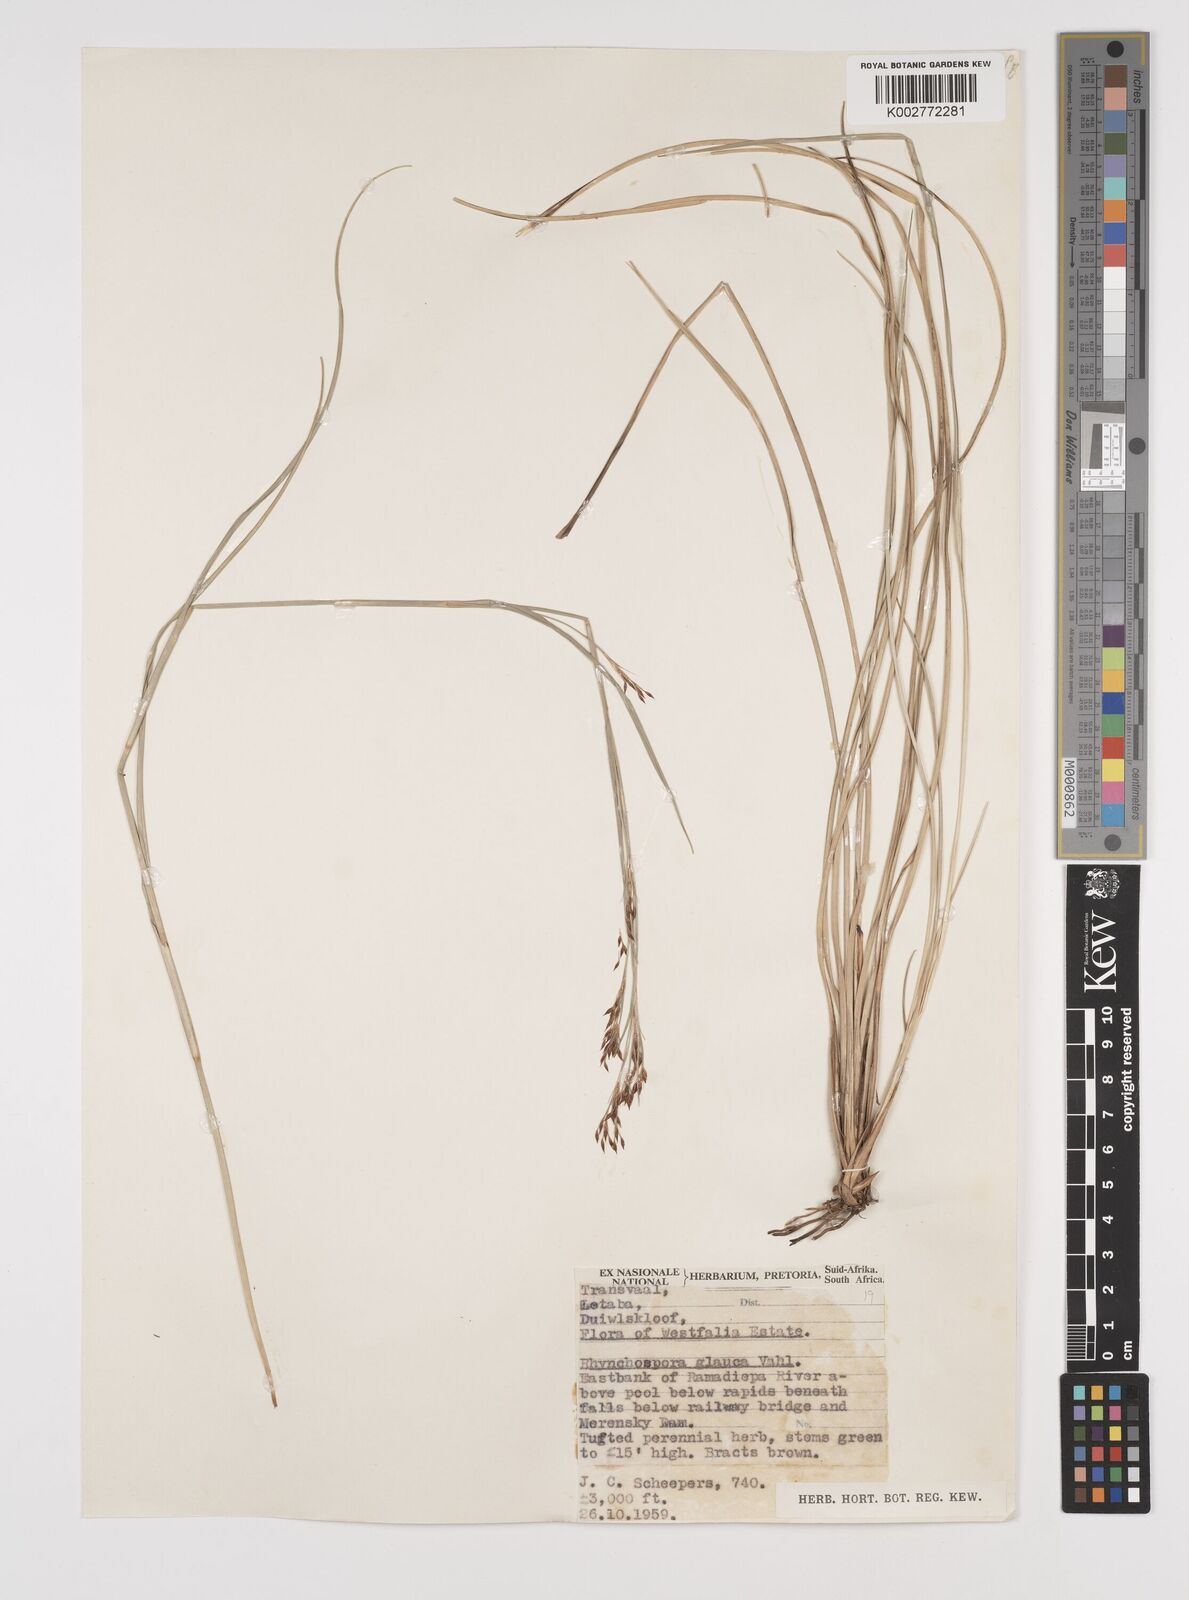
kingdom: Plantae
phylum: Tracheophyta
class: Liliopsida
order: Poales
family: Cyperaceae
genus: Rhynchospora
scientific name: Rhynchospora rugosa
